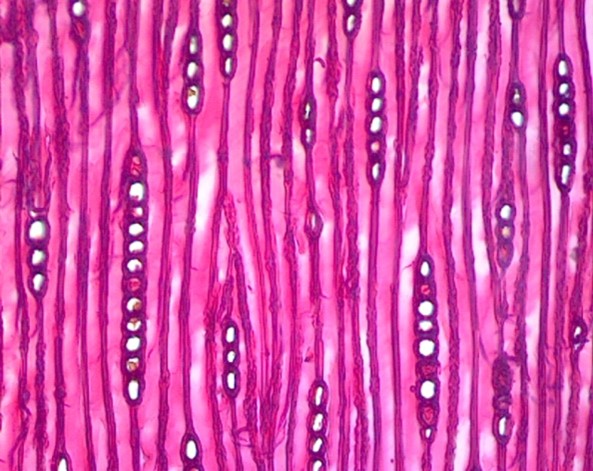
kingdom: Plantae
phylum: Tracheophyta
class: Pinopsida
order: Pinales
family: Cupressaceae
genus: Austrocedrus
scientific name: Austrocedrus chilensis
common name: Ciprés de la cordillera
